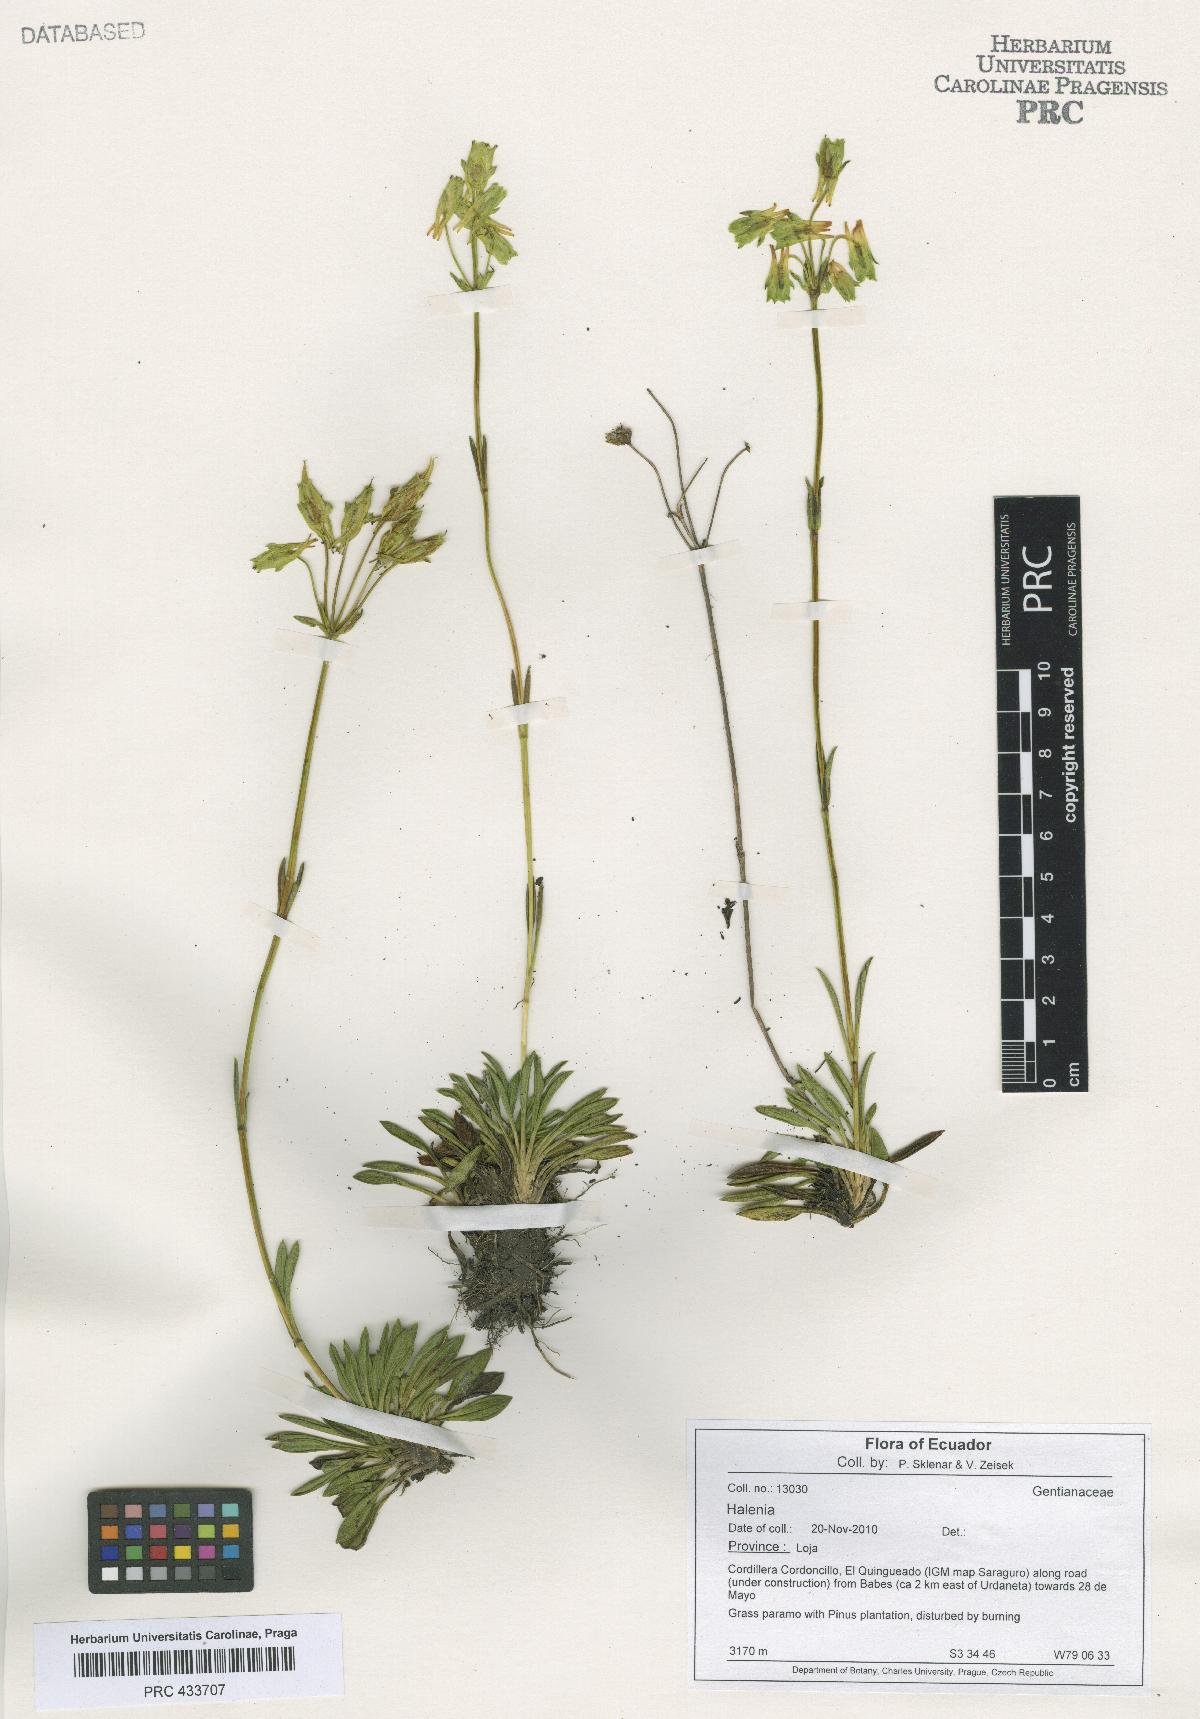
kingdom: Plantae
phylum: Tracheophyta
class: Magnoliopsida
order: Gentianales
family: Gentianaceae
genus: Halenia
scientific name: Halenia
